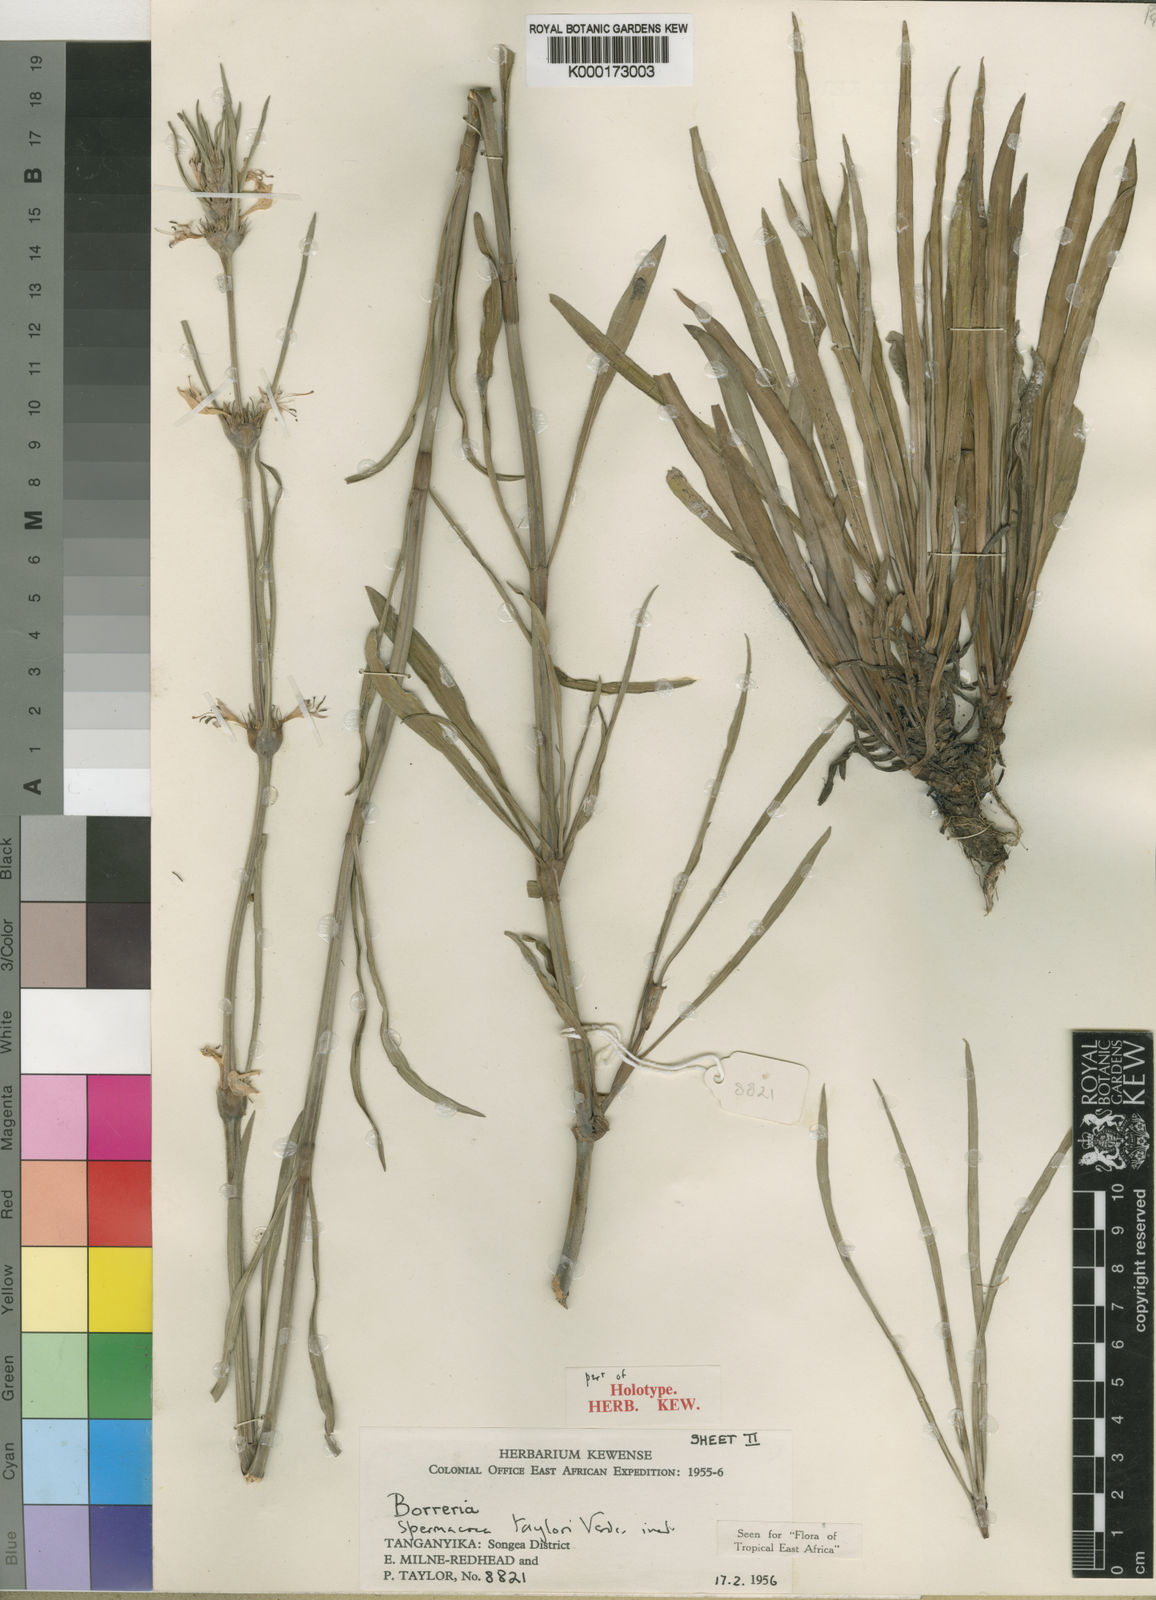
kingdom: Plantae
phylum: Tracheophyta
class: Magnoliopsida
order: Gentianales
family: Rubiaceae
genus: Spermacoce
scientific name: Spermacoce taylorii
